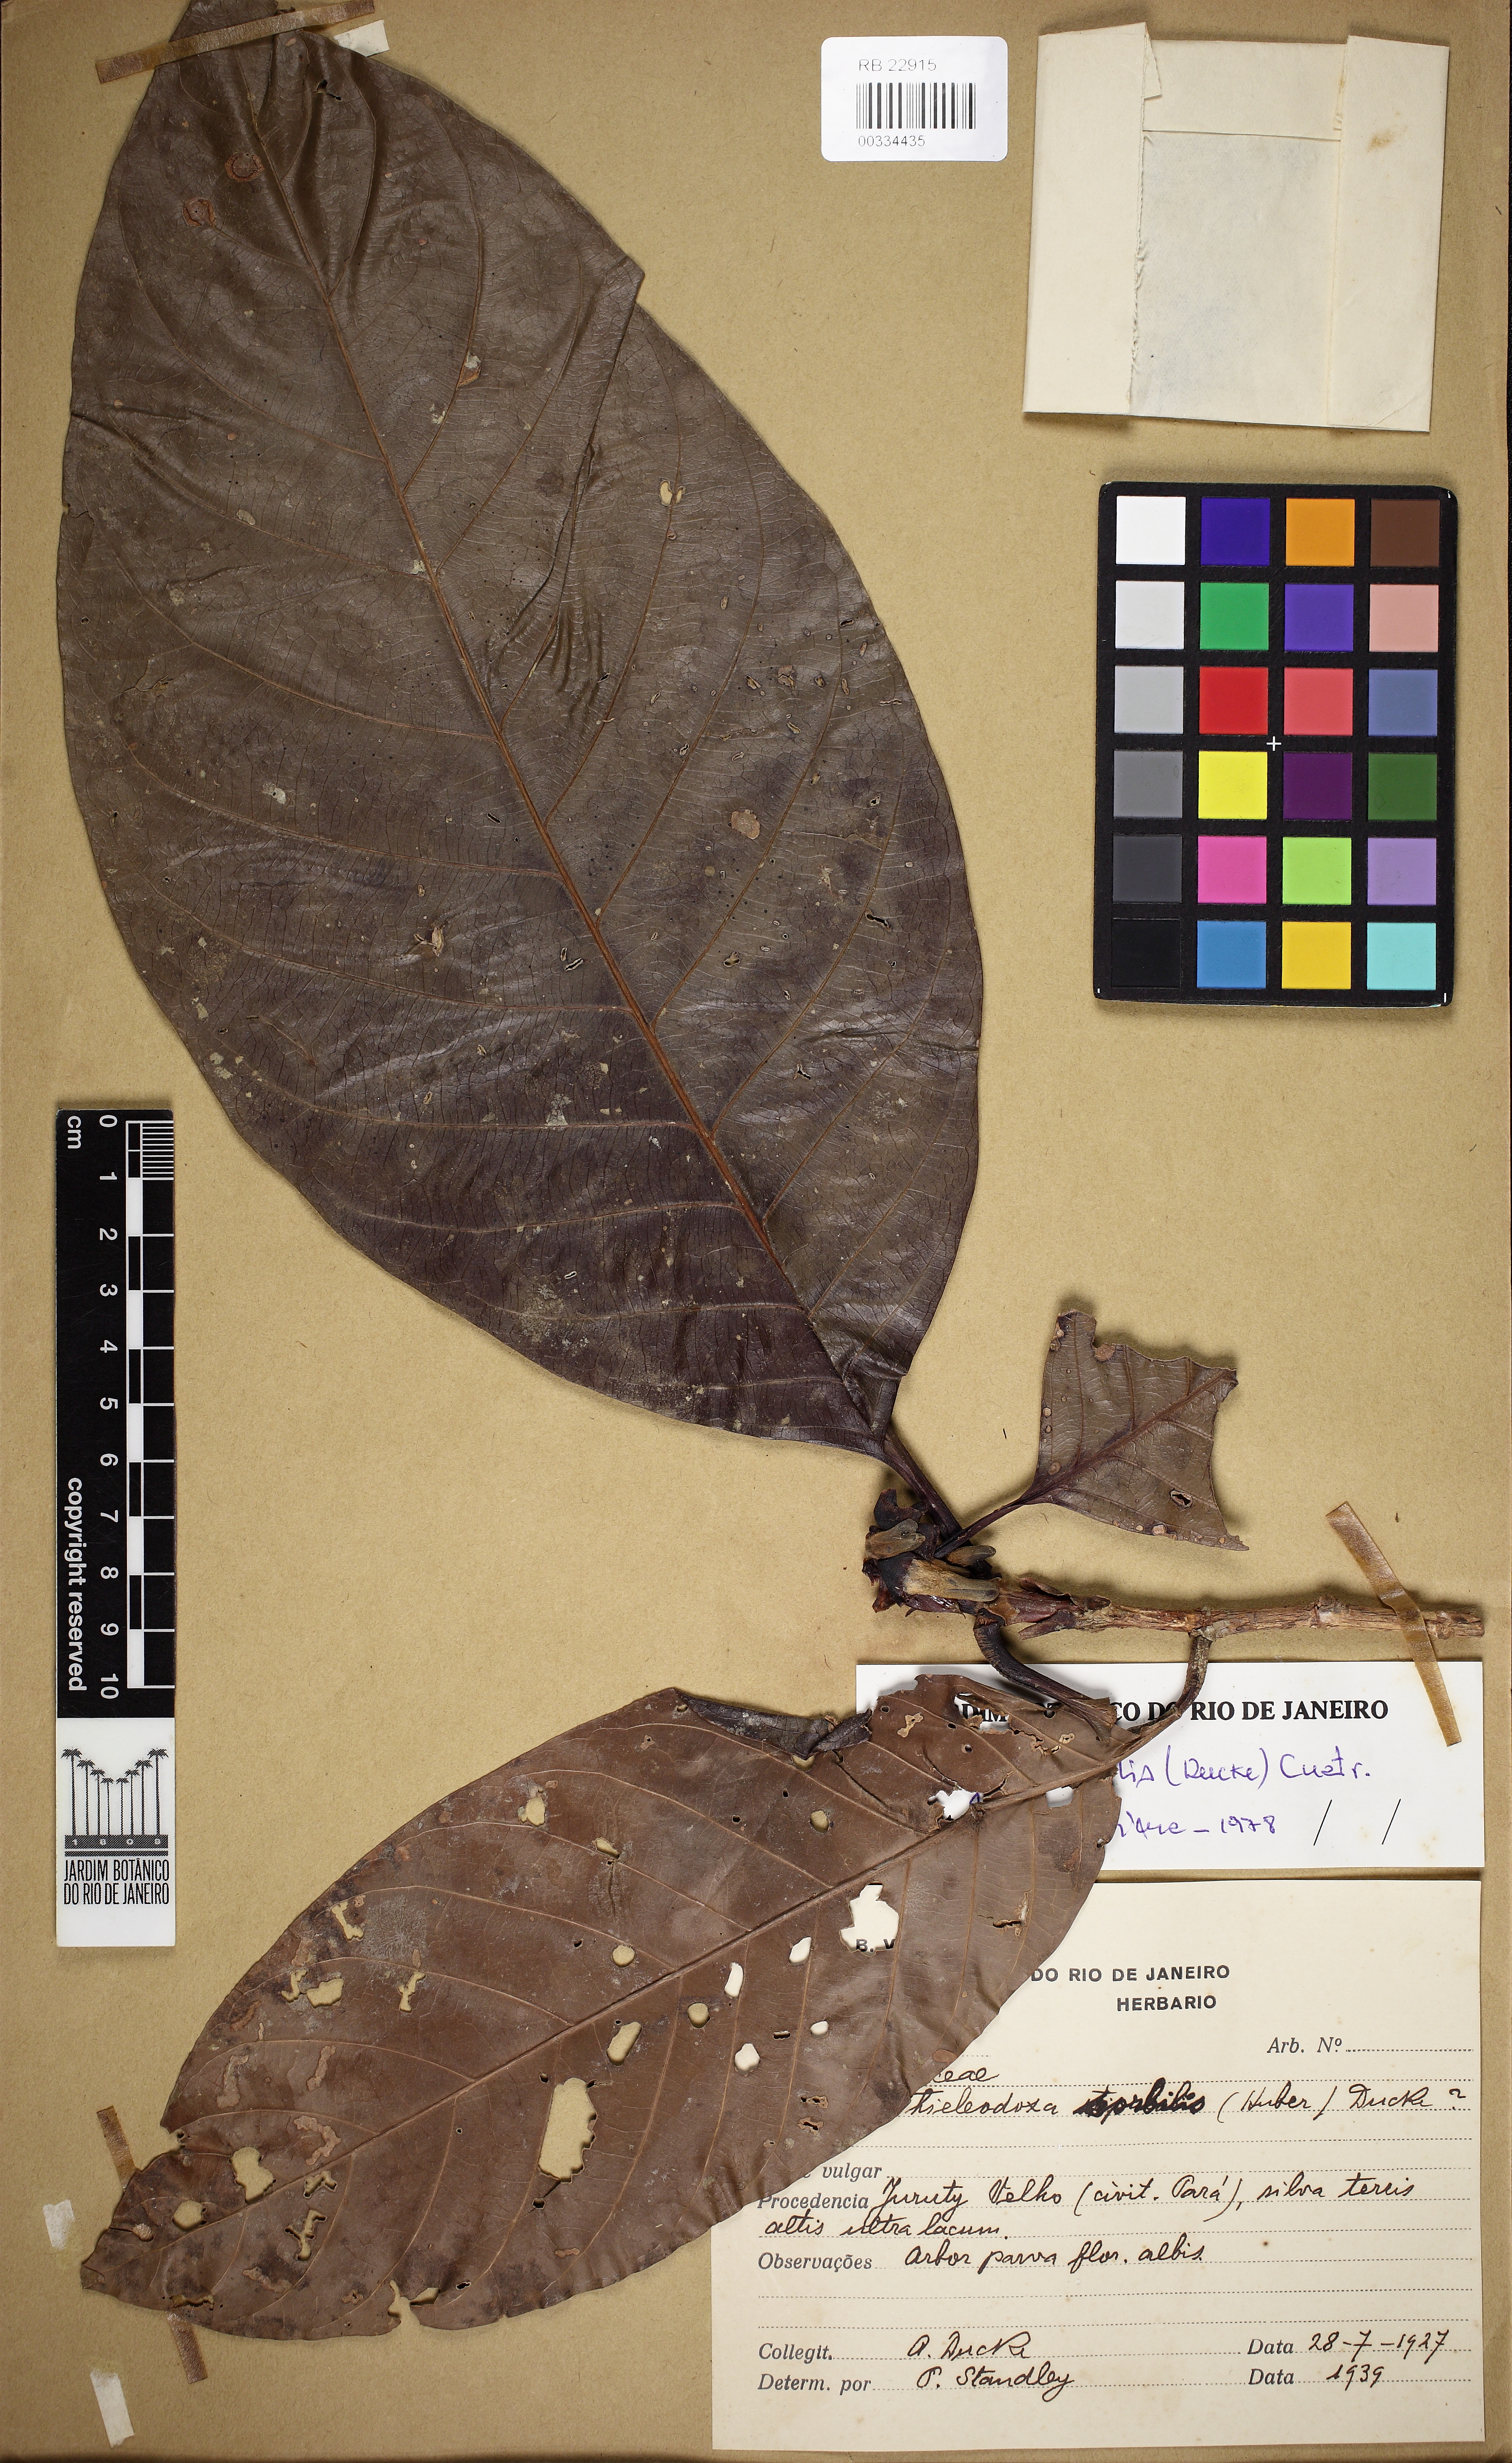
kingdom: Plantae
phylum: Tracheophyta
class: Magnoliopsida
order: Gentianales
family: Rubiaceae
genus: Alibertia
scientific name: Alibertia sorbilis
